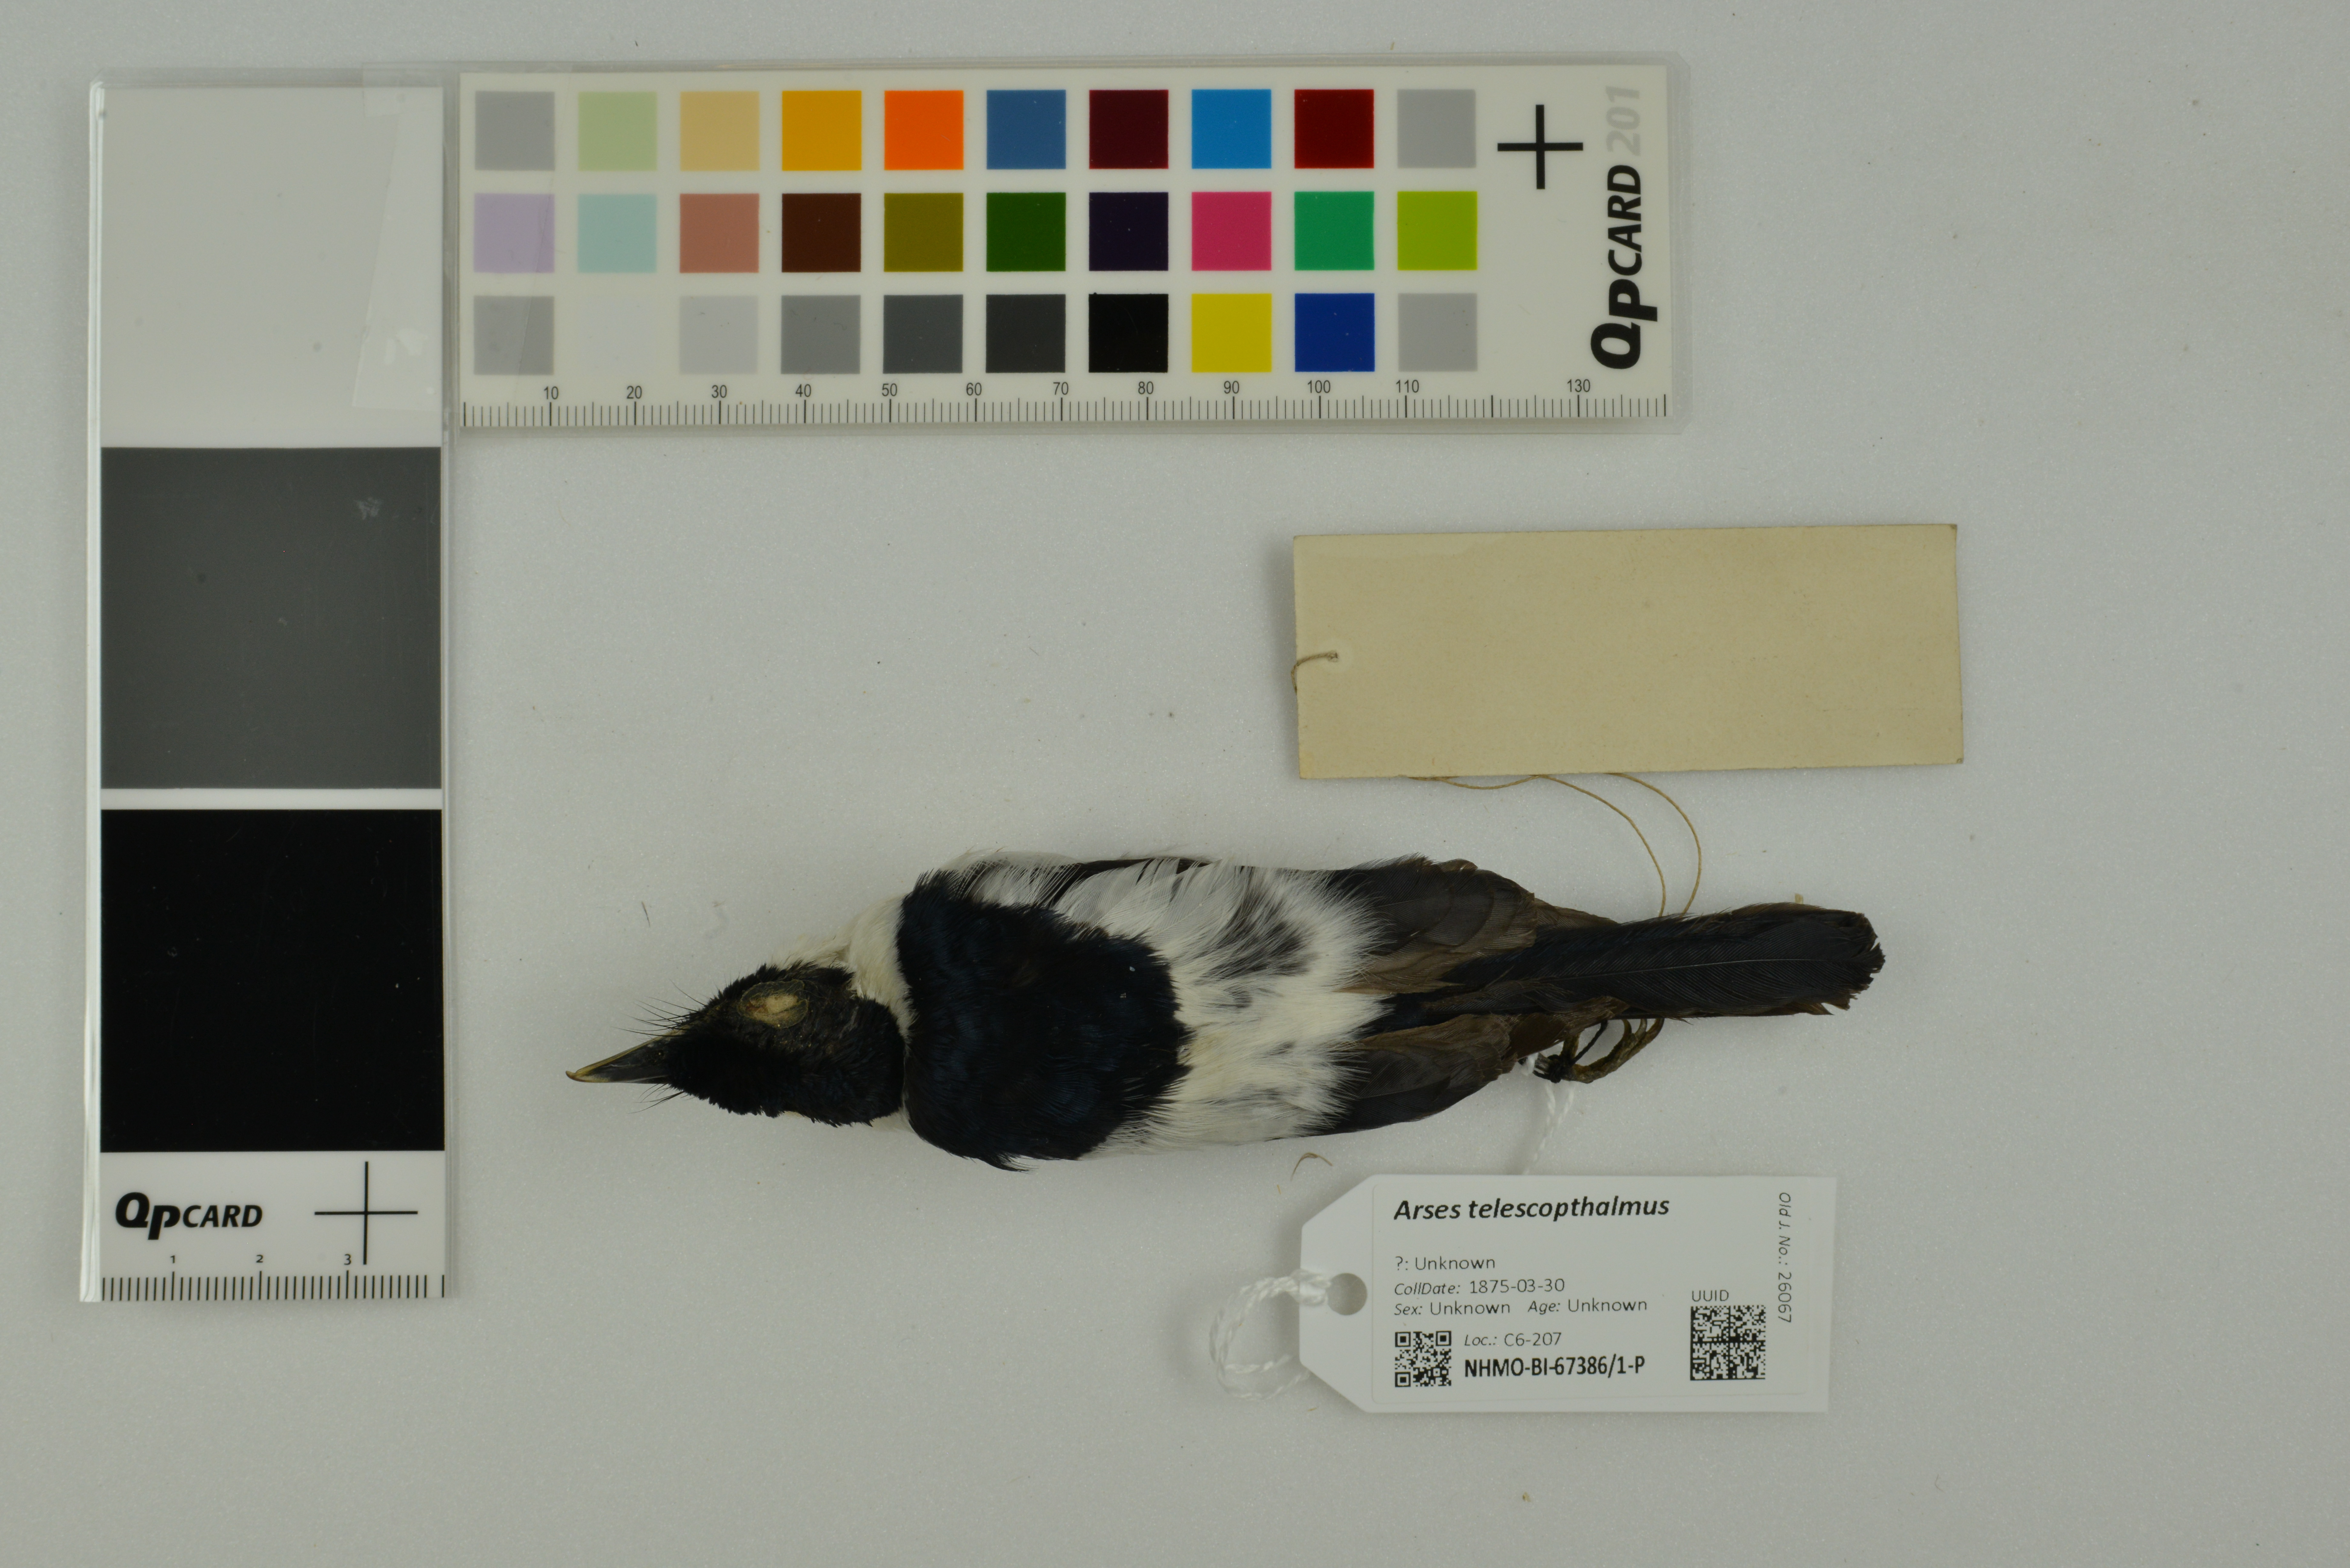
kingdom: Animalia
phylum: Chordata
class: Aves
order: Passeriformes
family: Monarchidae
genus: Arses
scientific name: Arses telescopthalmus
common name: Frilled monarch
